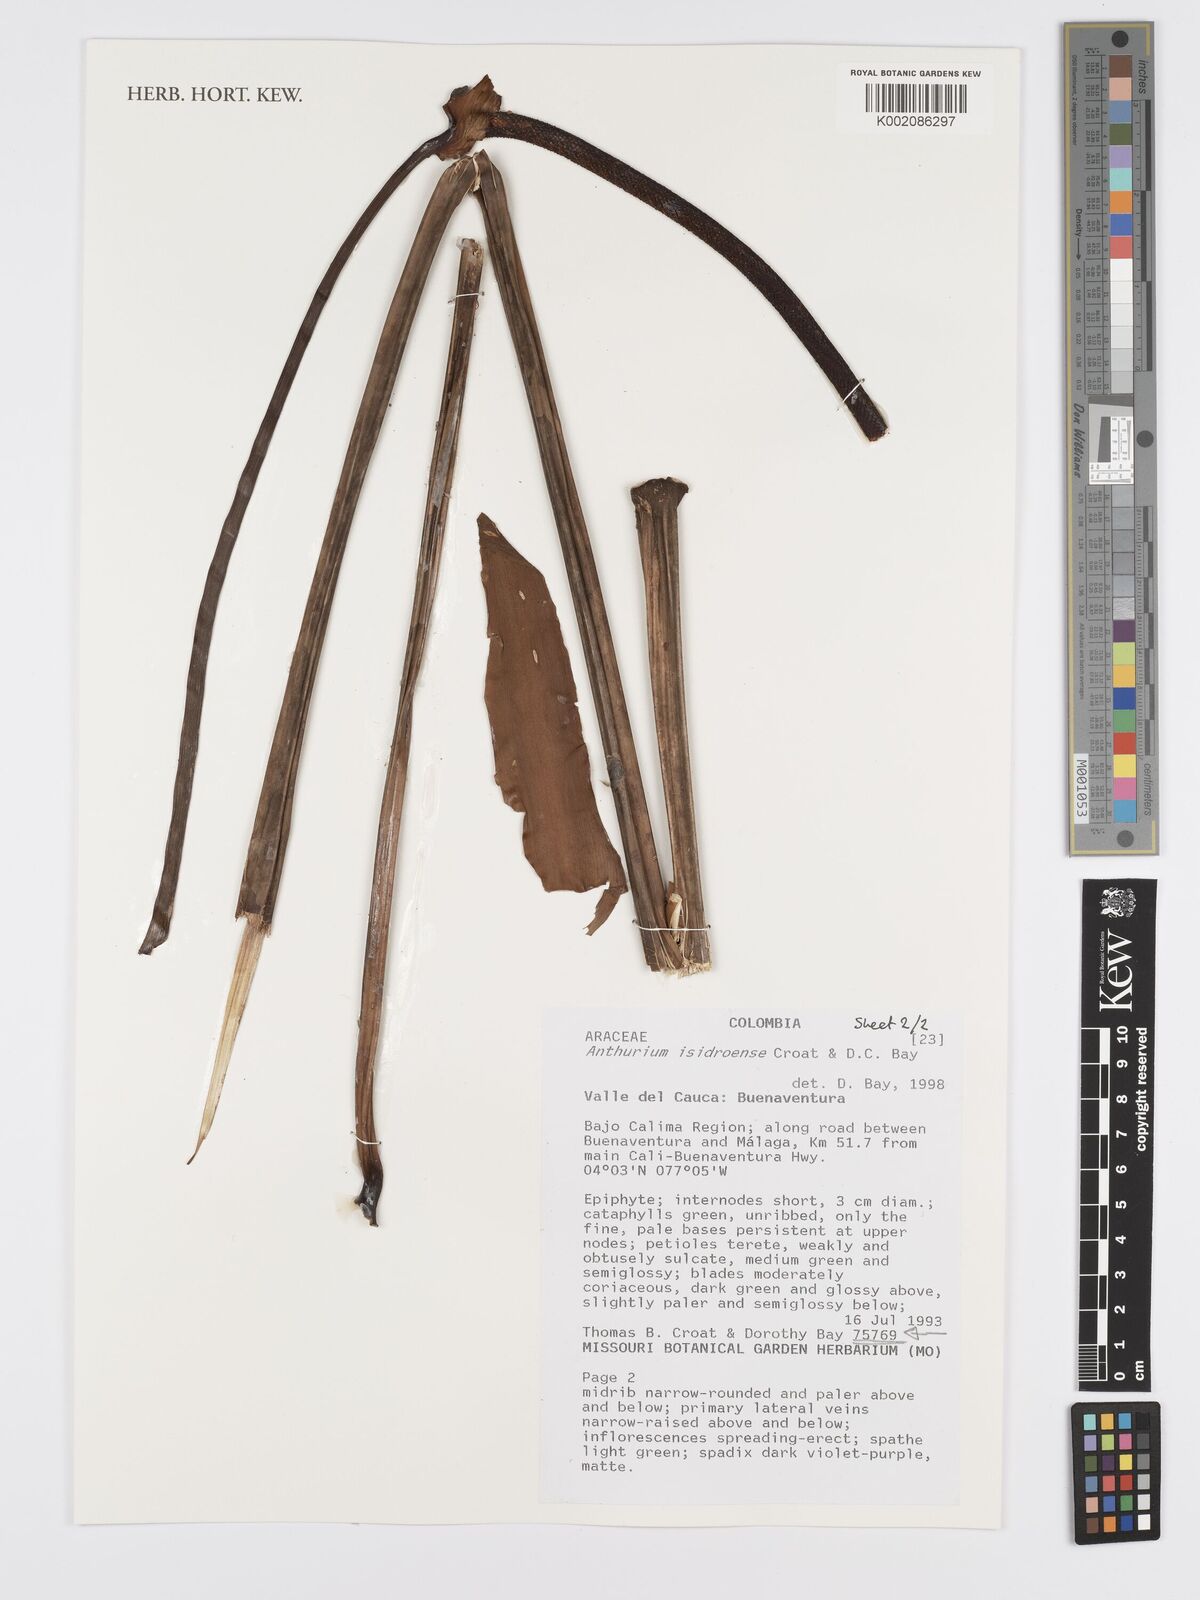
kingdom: Plantae
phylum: Tracheophyta
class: Liliopsida
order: Alismatales
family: Araceae
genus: Anthurium
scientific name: Anthurium isidroense
